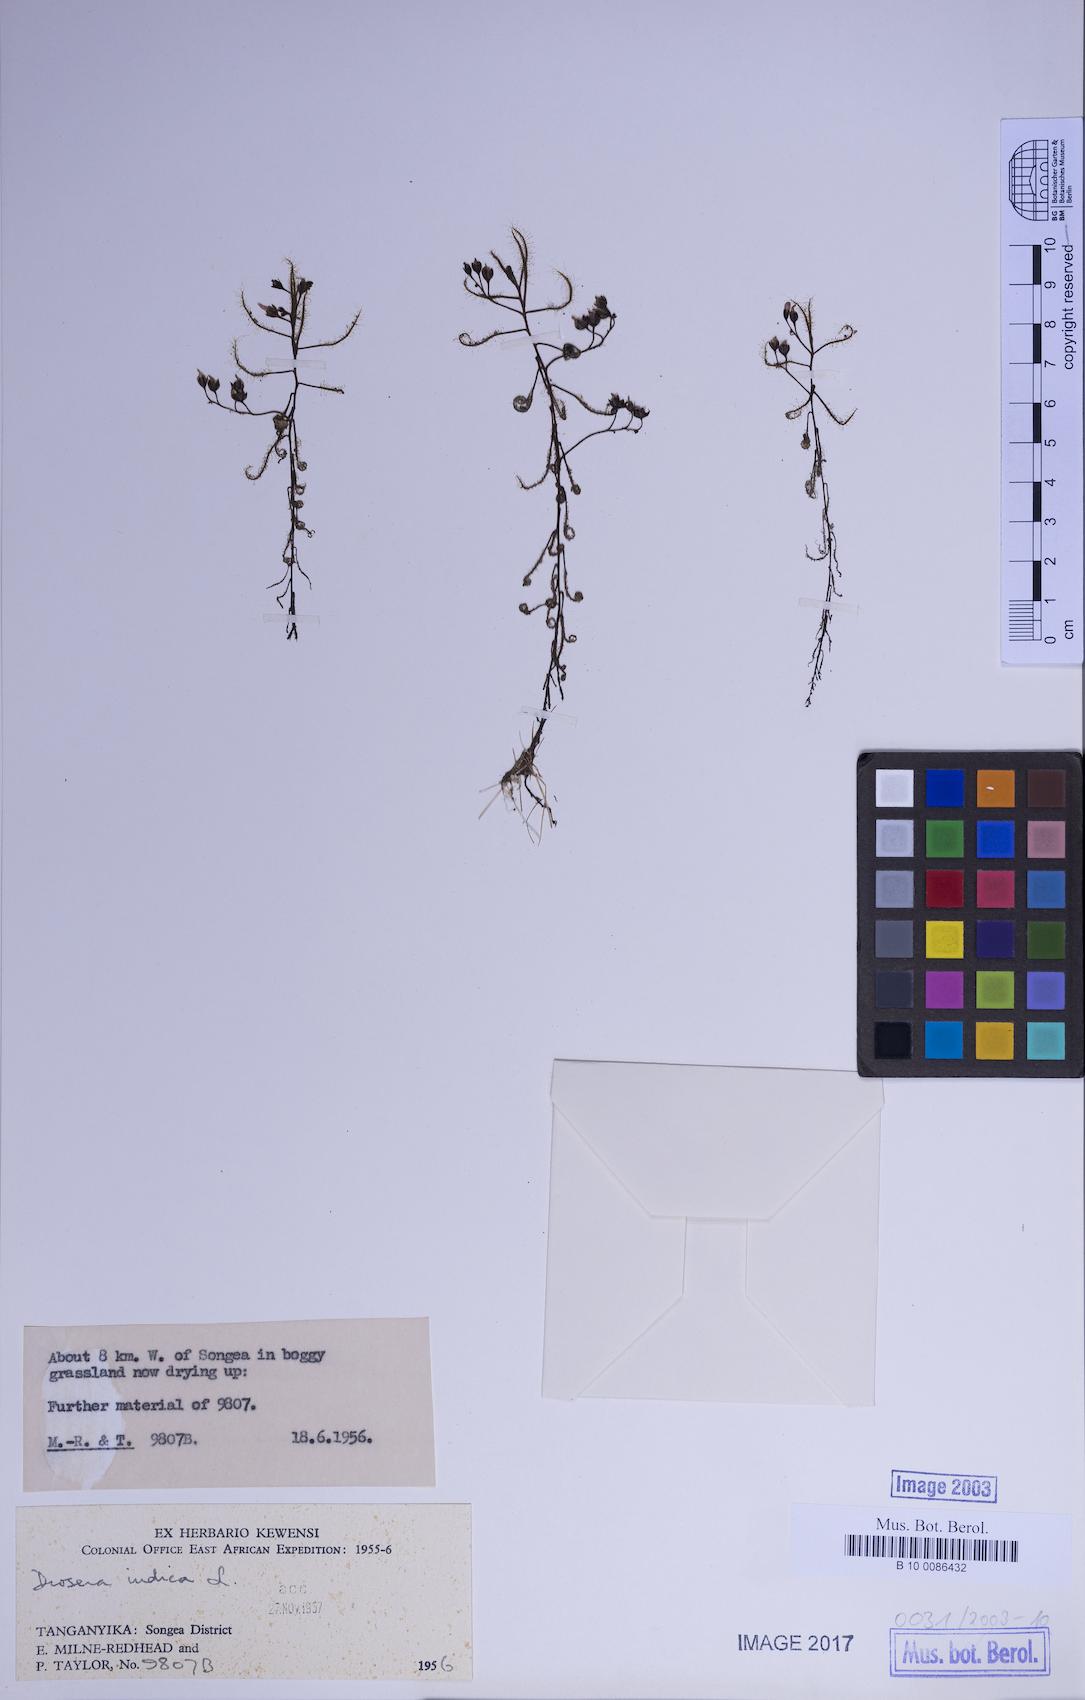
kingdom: Plantae
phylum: Tracheophyta
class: Magnoliopsida
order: Caryophyllales
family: Droseraceae
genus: Drosera
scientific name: Drosera indica
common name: Indian sundew
